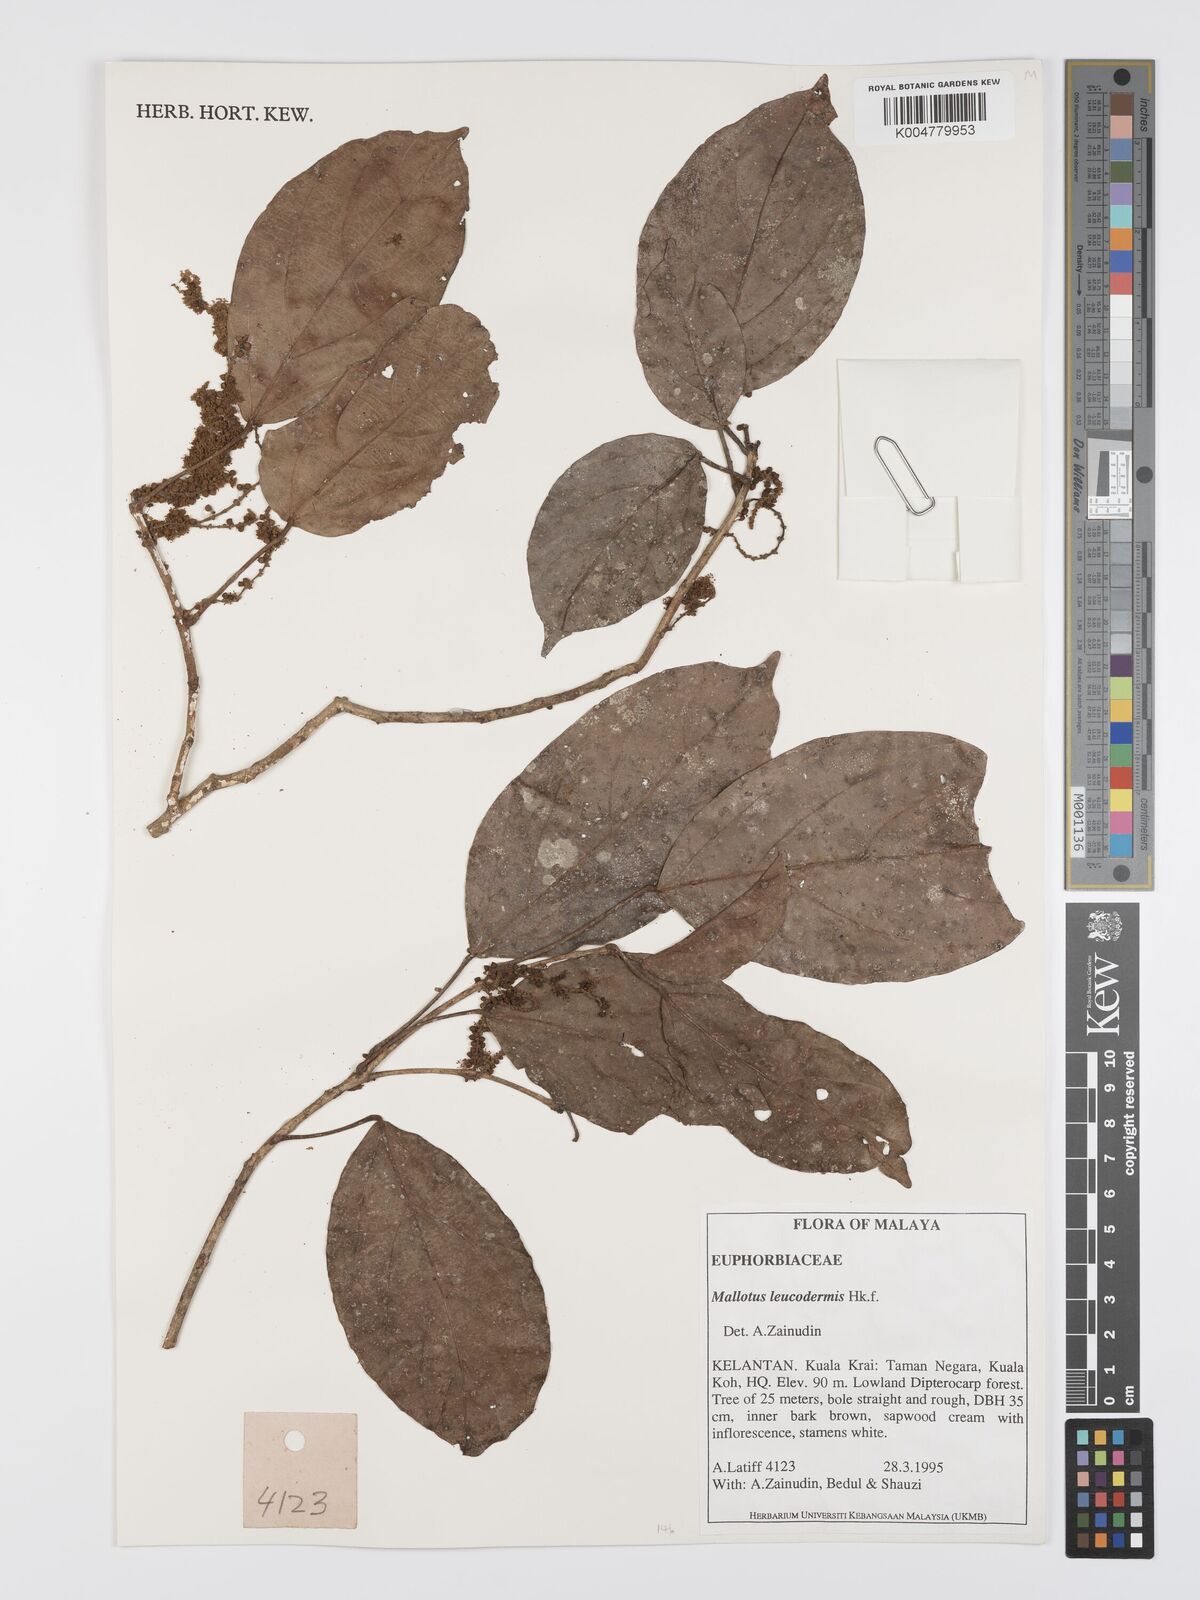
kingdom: Plantae
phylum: Tracheophyta
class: Magnoliopsida
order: Malpighiales
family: Euphorbiaceae
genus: Mallotus
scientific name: Mallotus leucodermis
